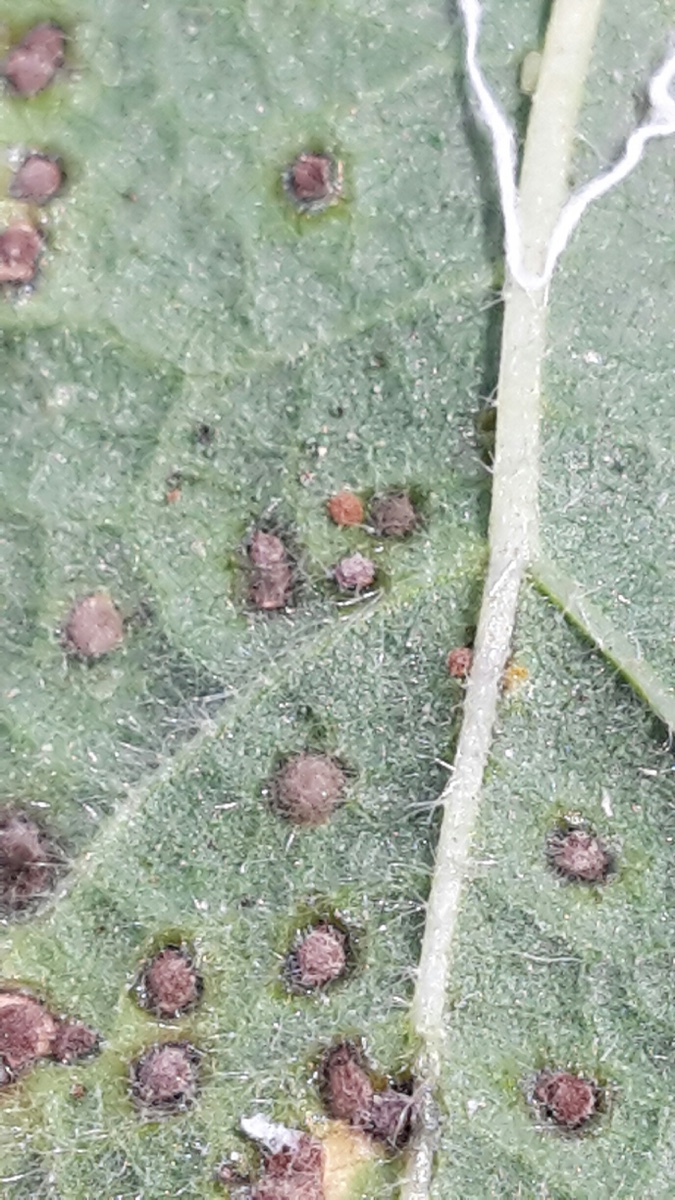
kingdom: Fungi
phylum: Basidiomycota
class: Pucciniomycetes
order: Pucciniales
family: Pucciniaceae
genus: Puccinia
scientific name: Puccinia malvacearum
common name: stokrose-tvecellerust
